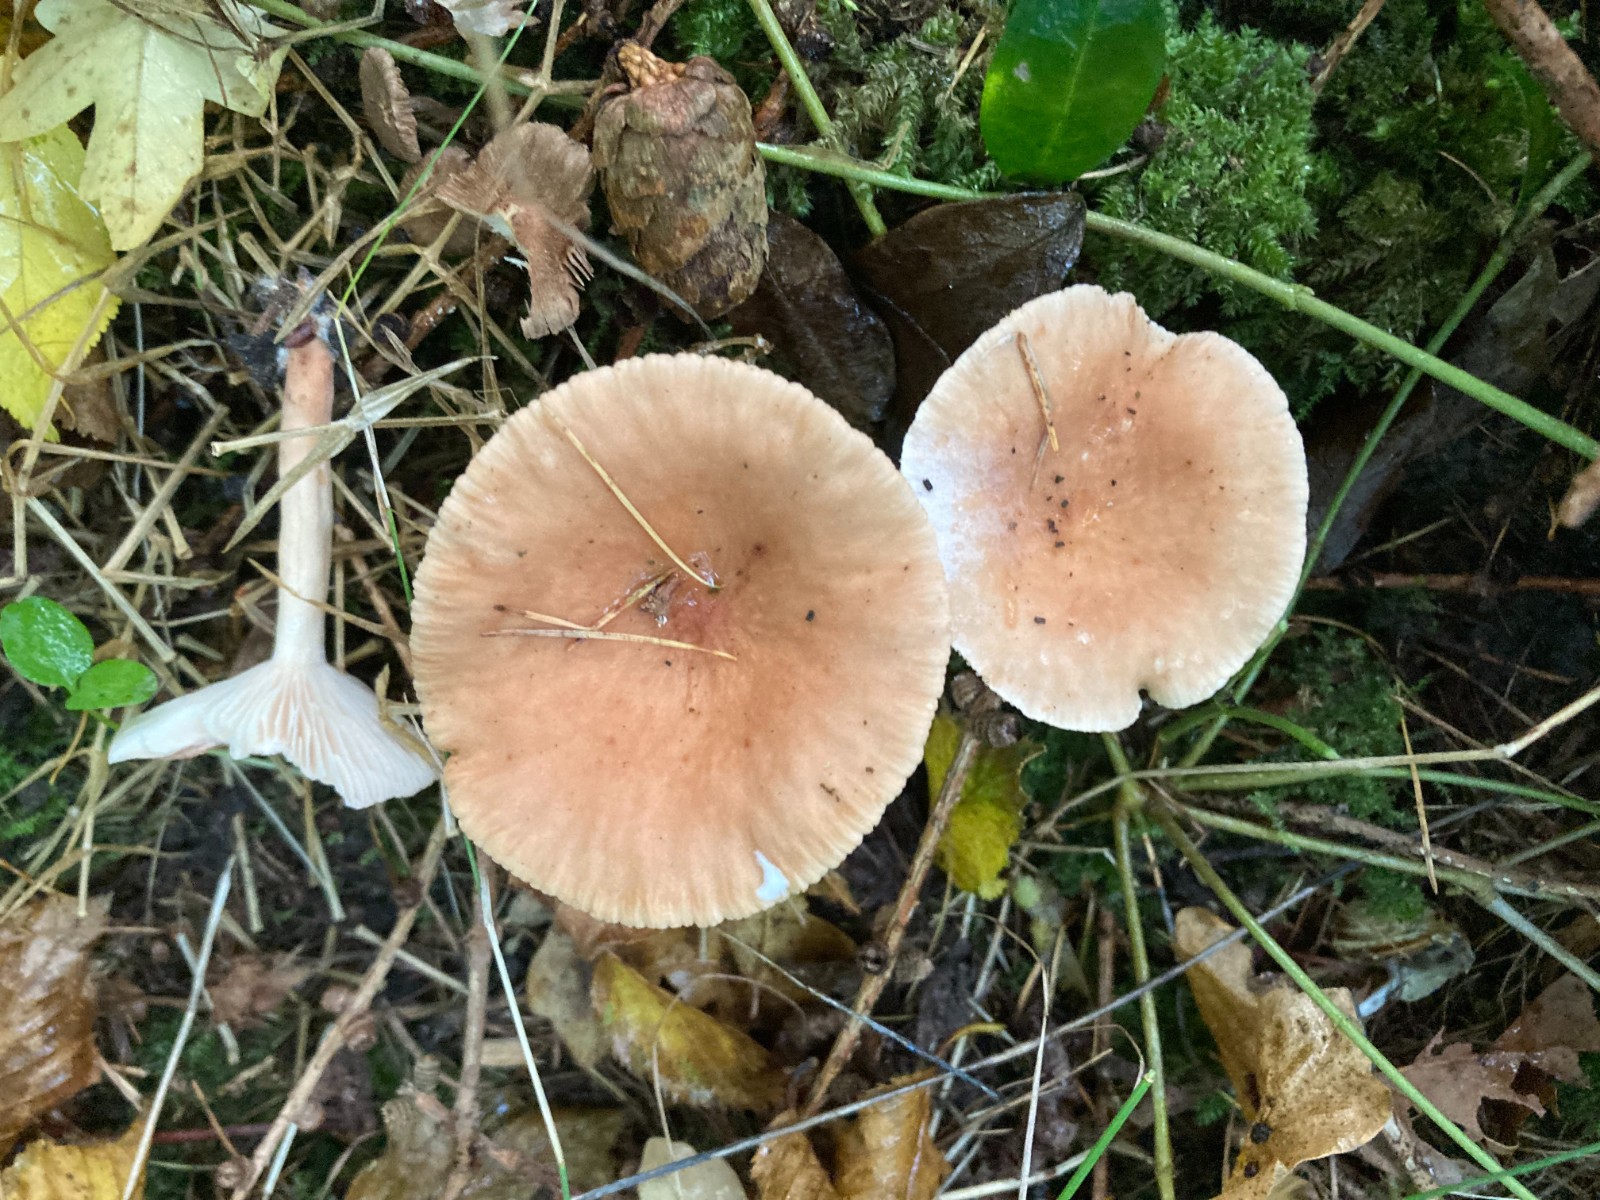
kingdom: Fungi
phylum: Basidiomycota
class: Agaricomycetes
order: Russulales
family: Russulaceae
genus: Lactarius
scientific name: Lactarius
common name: mælkehat
